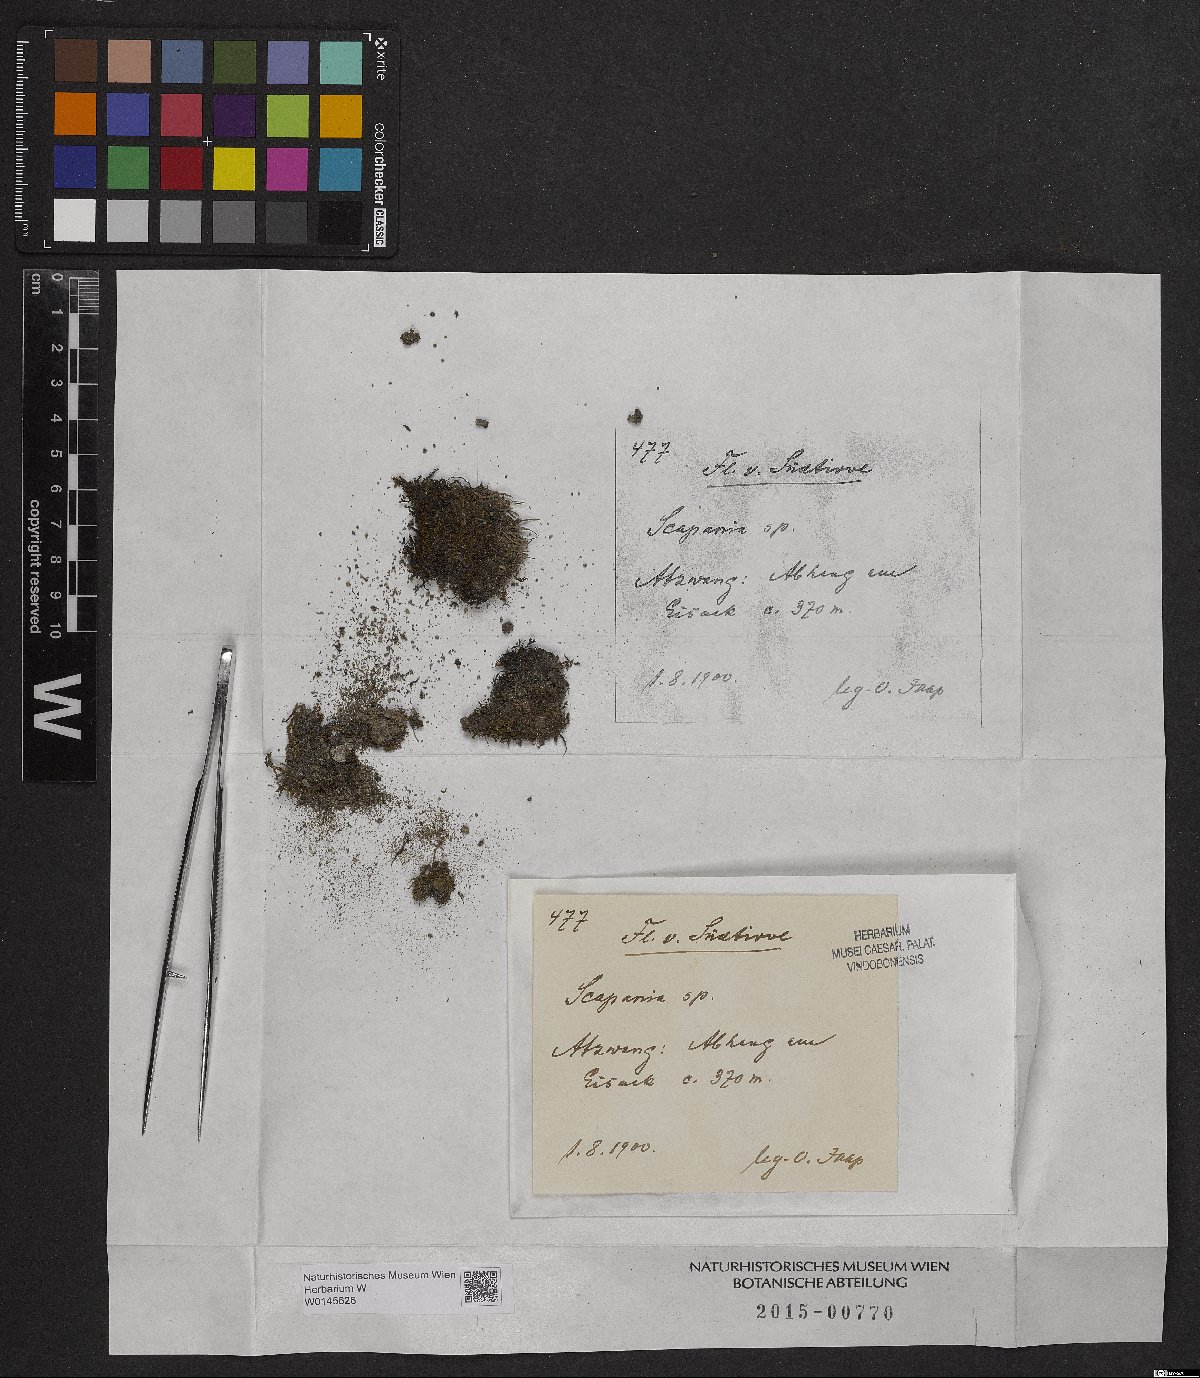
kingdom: Plantae
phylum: Marchantiophyta
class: Jungermanniopsida
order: Jungermanniales
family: Scapaniaceae
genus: Scapania
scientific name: Scapania
